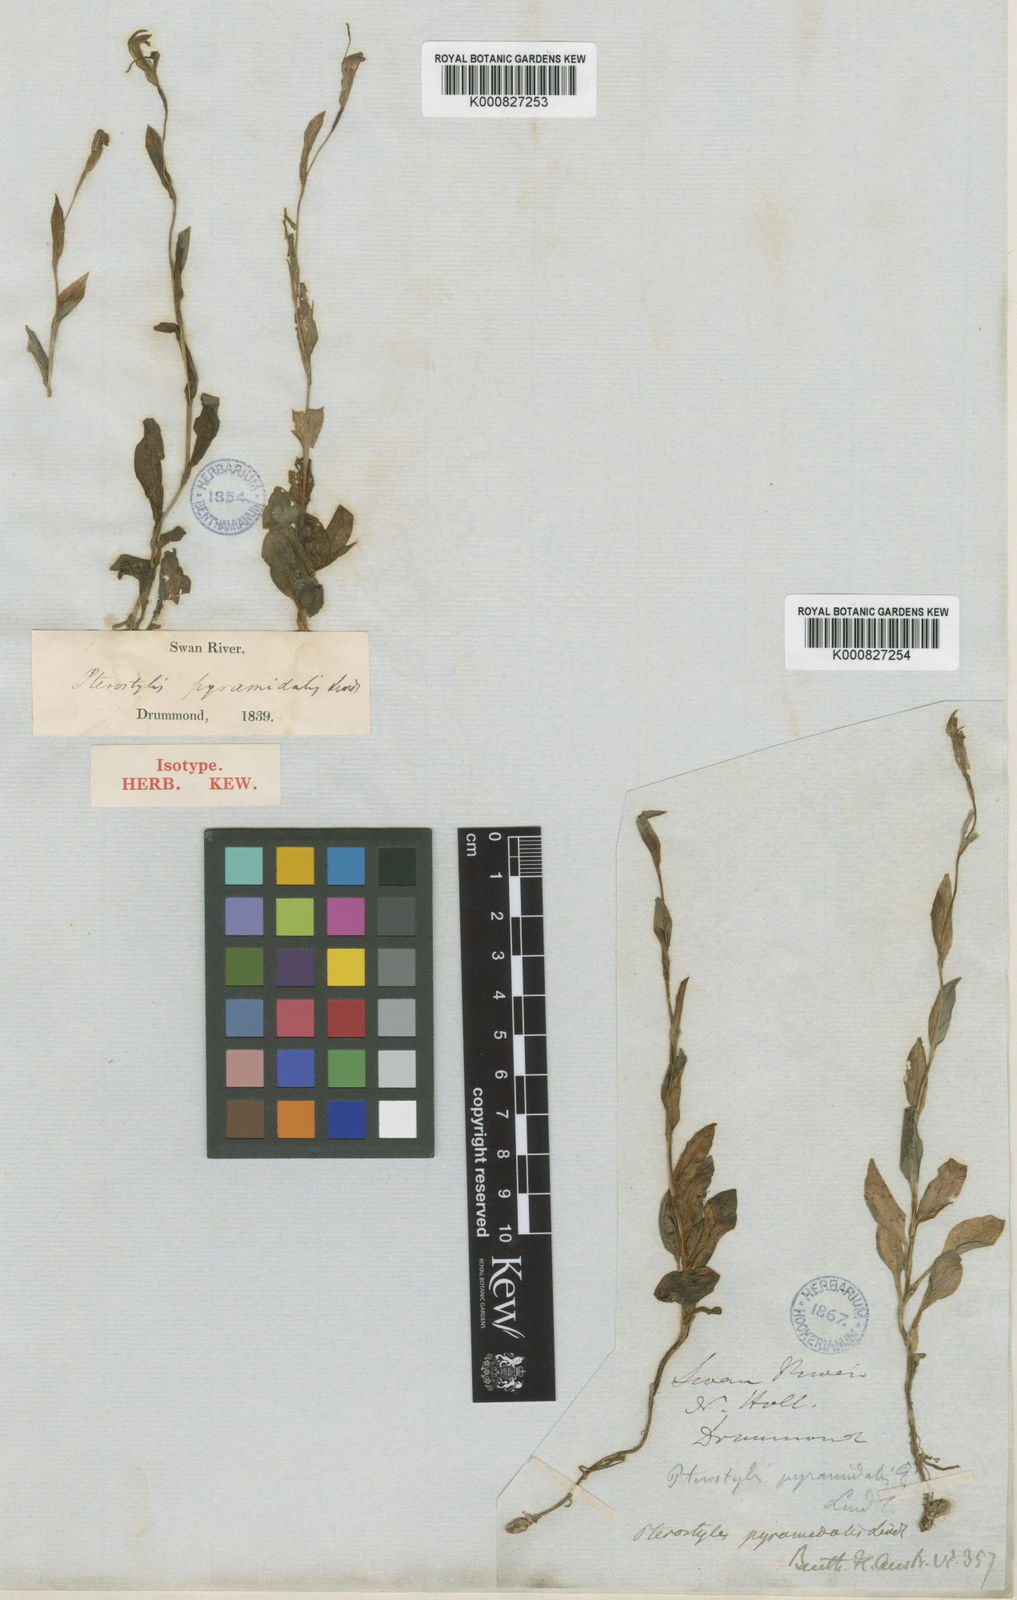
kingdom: Plantae
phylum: Tracheophyta
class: Liliopsida
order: Asparagales
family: Orchidaceae
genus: Pterostylis
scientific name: Pterostylis pyramidalis
